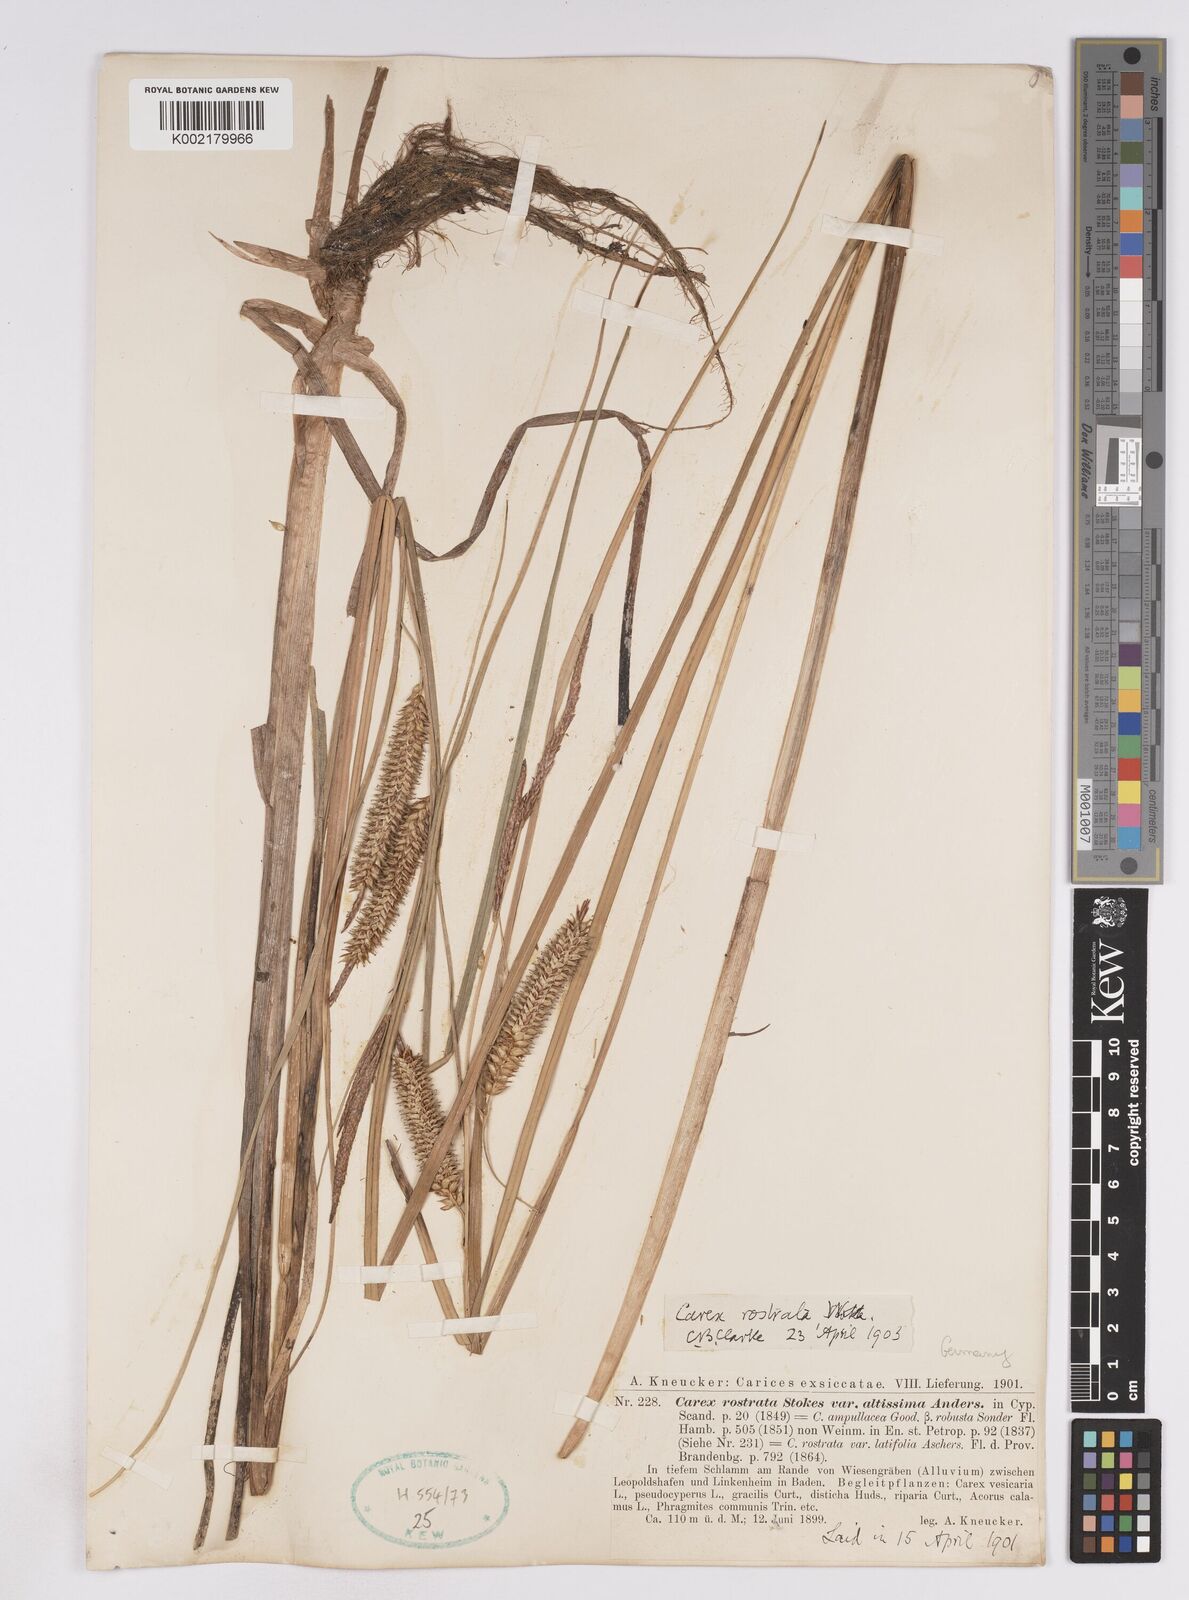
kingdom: Plantae
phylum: Tracheophyta
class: Liliopsida
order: Poales
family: Cyperaceae
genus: Carex
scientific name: Carex utriculata
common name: Beaked sedge
